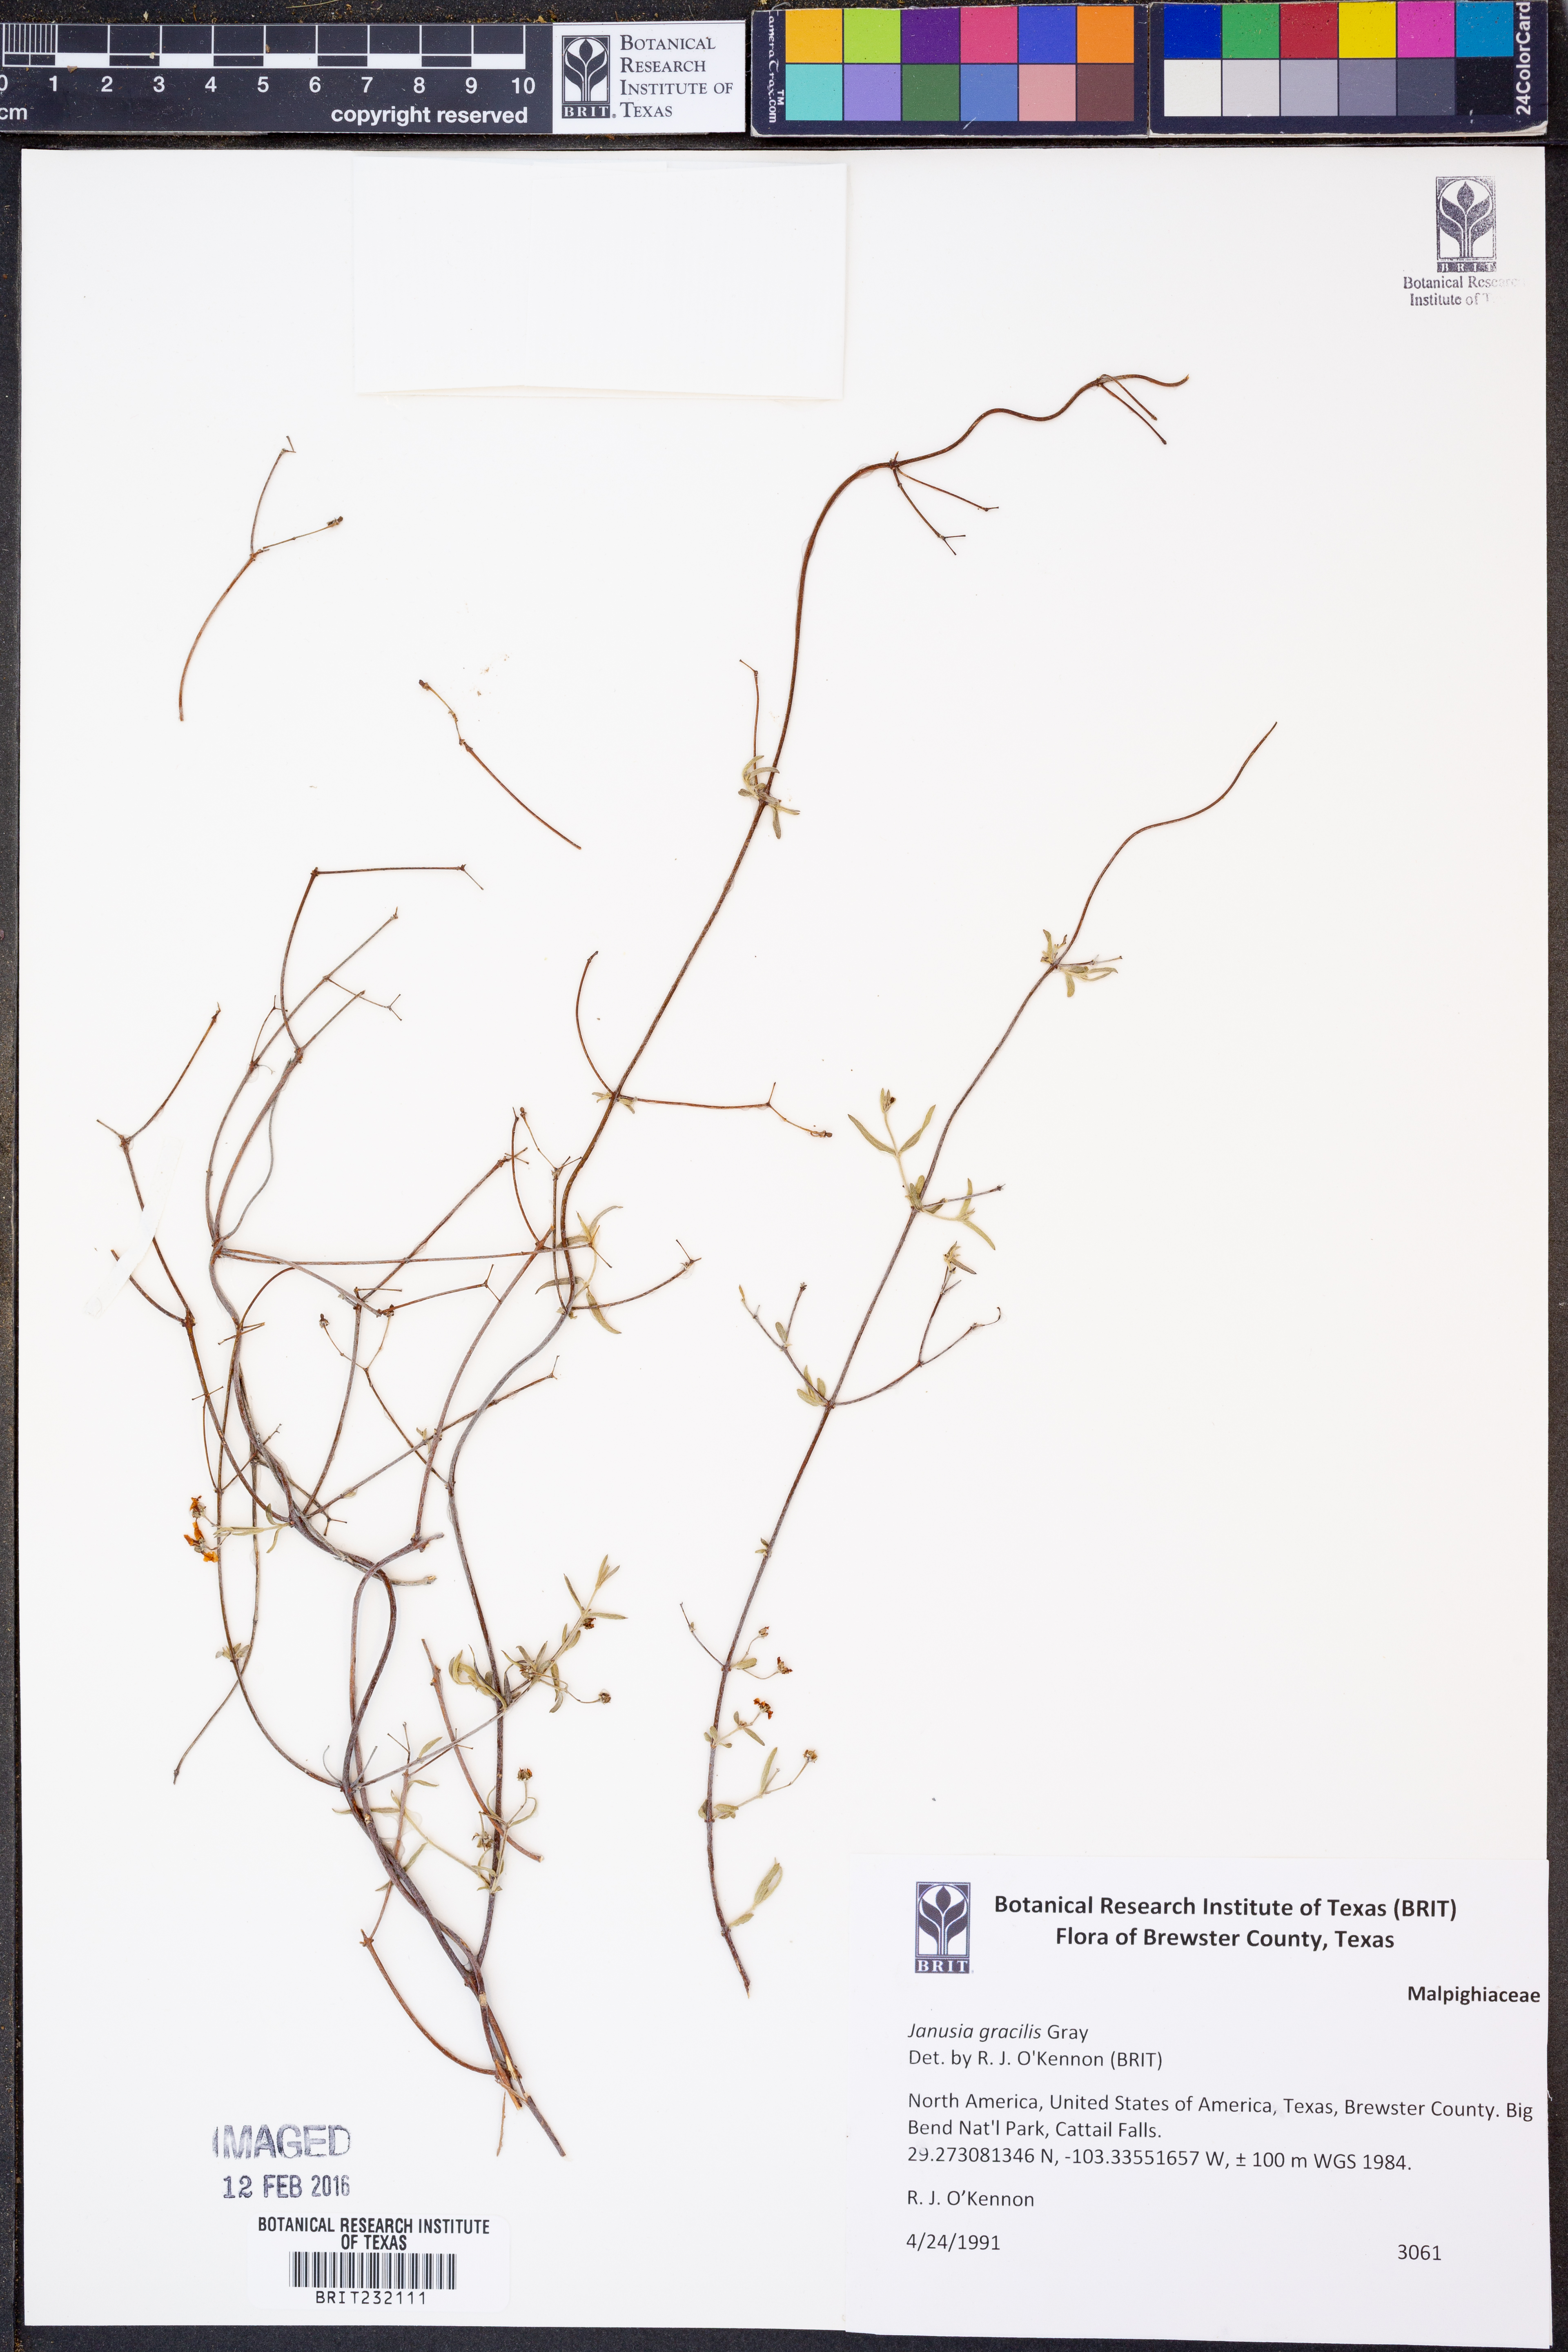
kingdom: Plantae
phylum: Tracheophyta
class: Magnoliopsida
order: Malpighiales
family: Malpighiaceae
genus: Cottsia
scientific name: Cottsia gracilis
